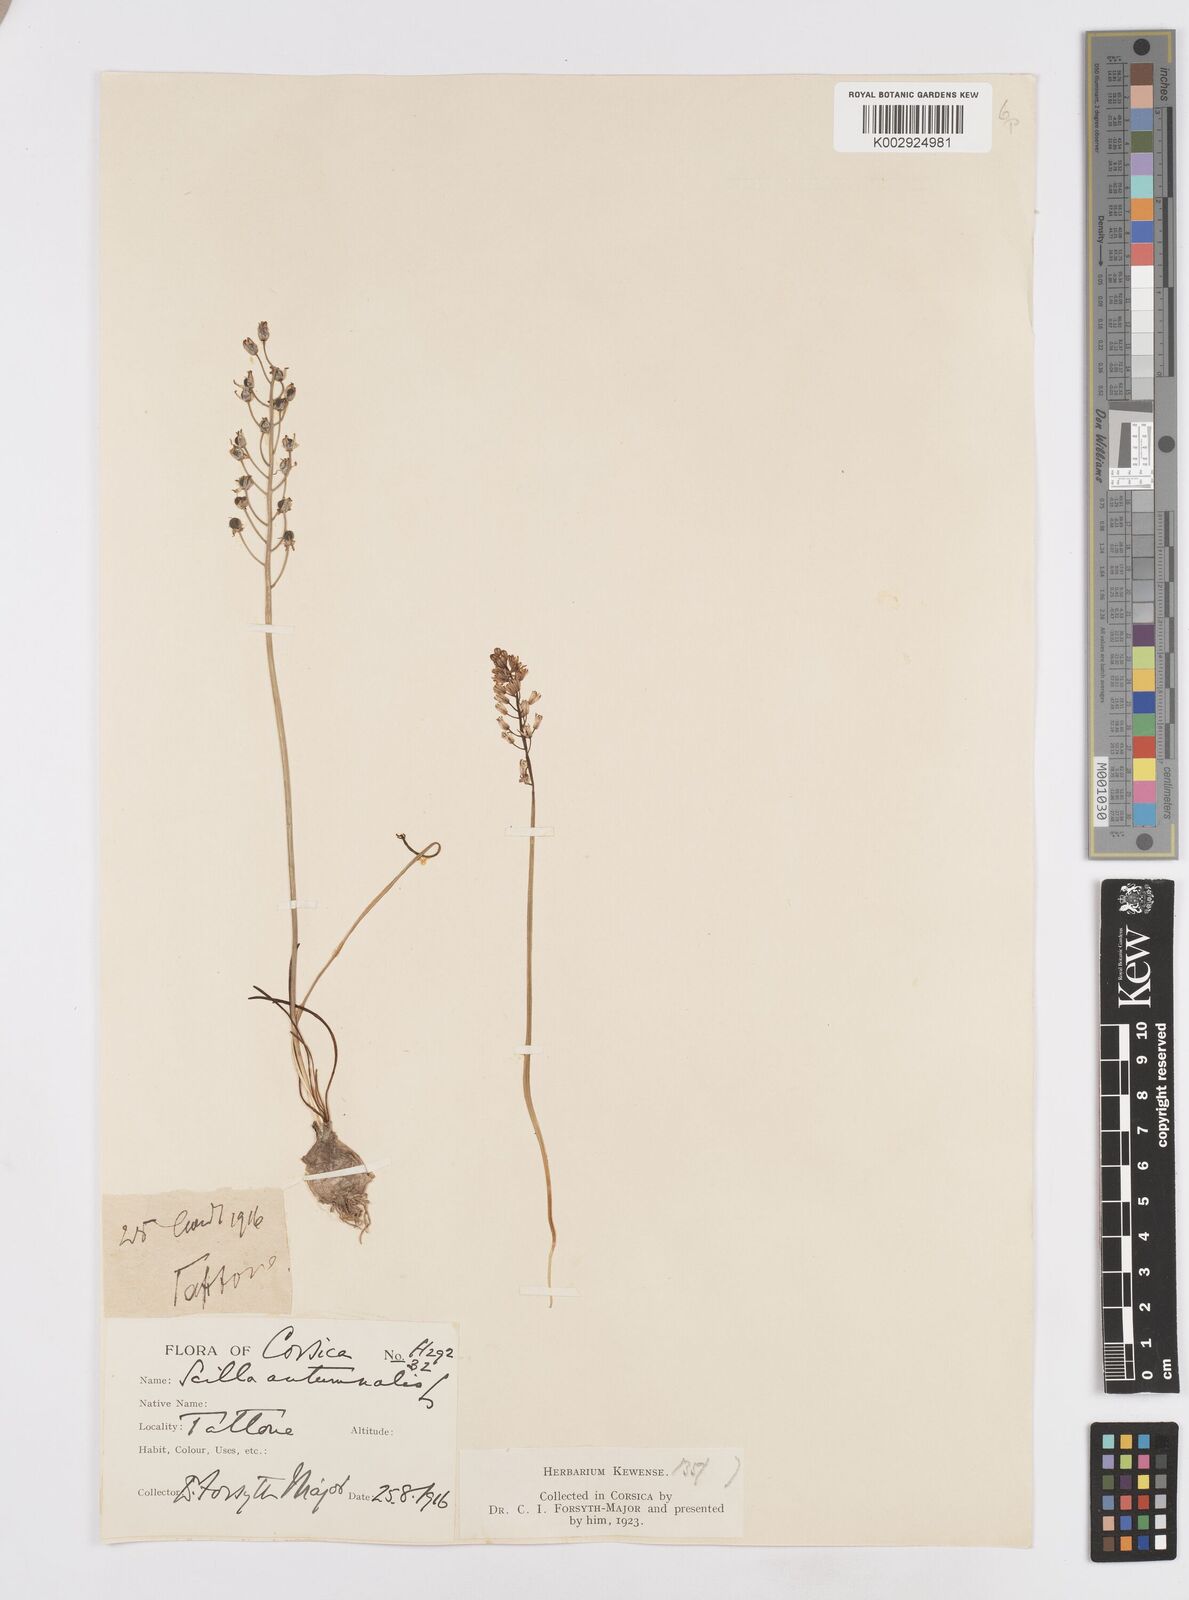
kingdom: Plantae
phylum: Tracheophyta
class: Liliopsida
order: Asparagales
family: Asparagaceae
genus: Prospero
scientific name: Prospero autumnale
